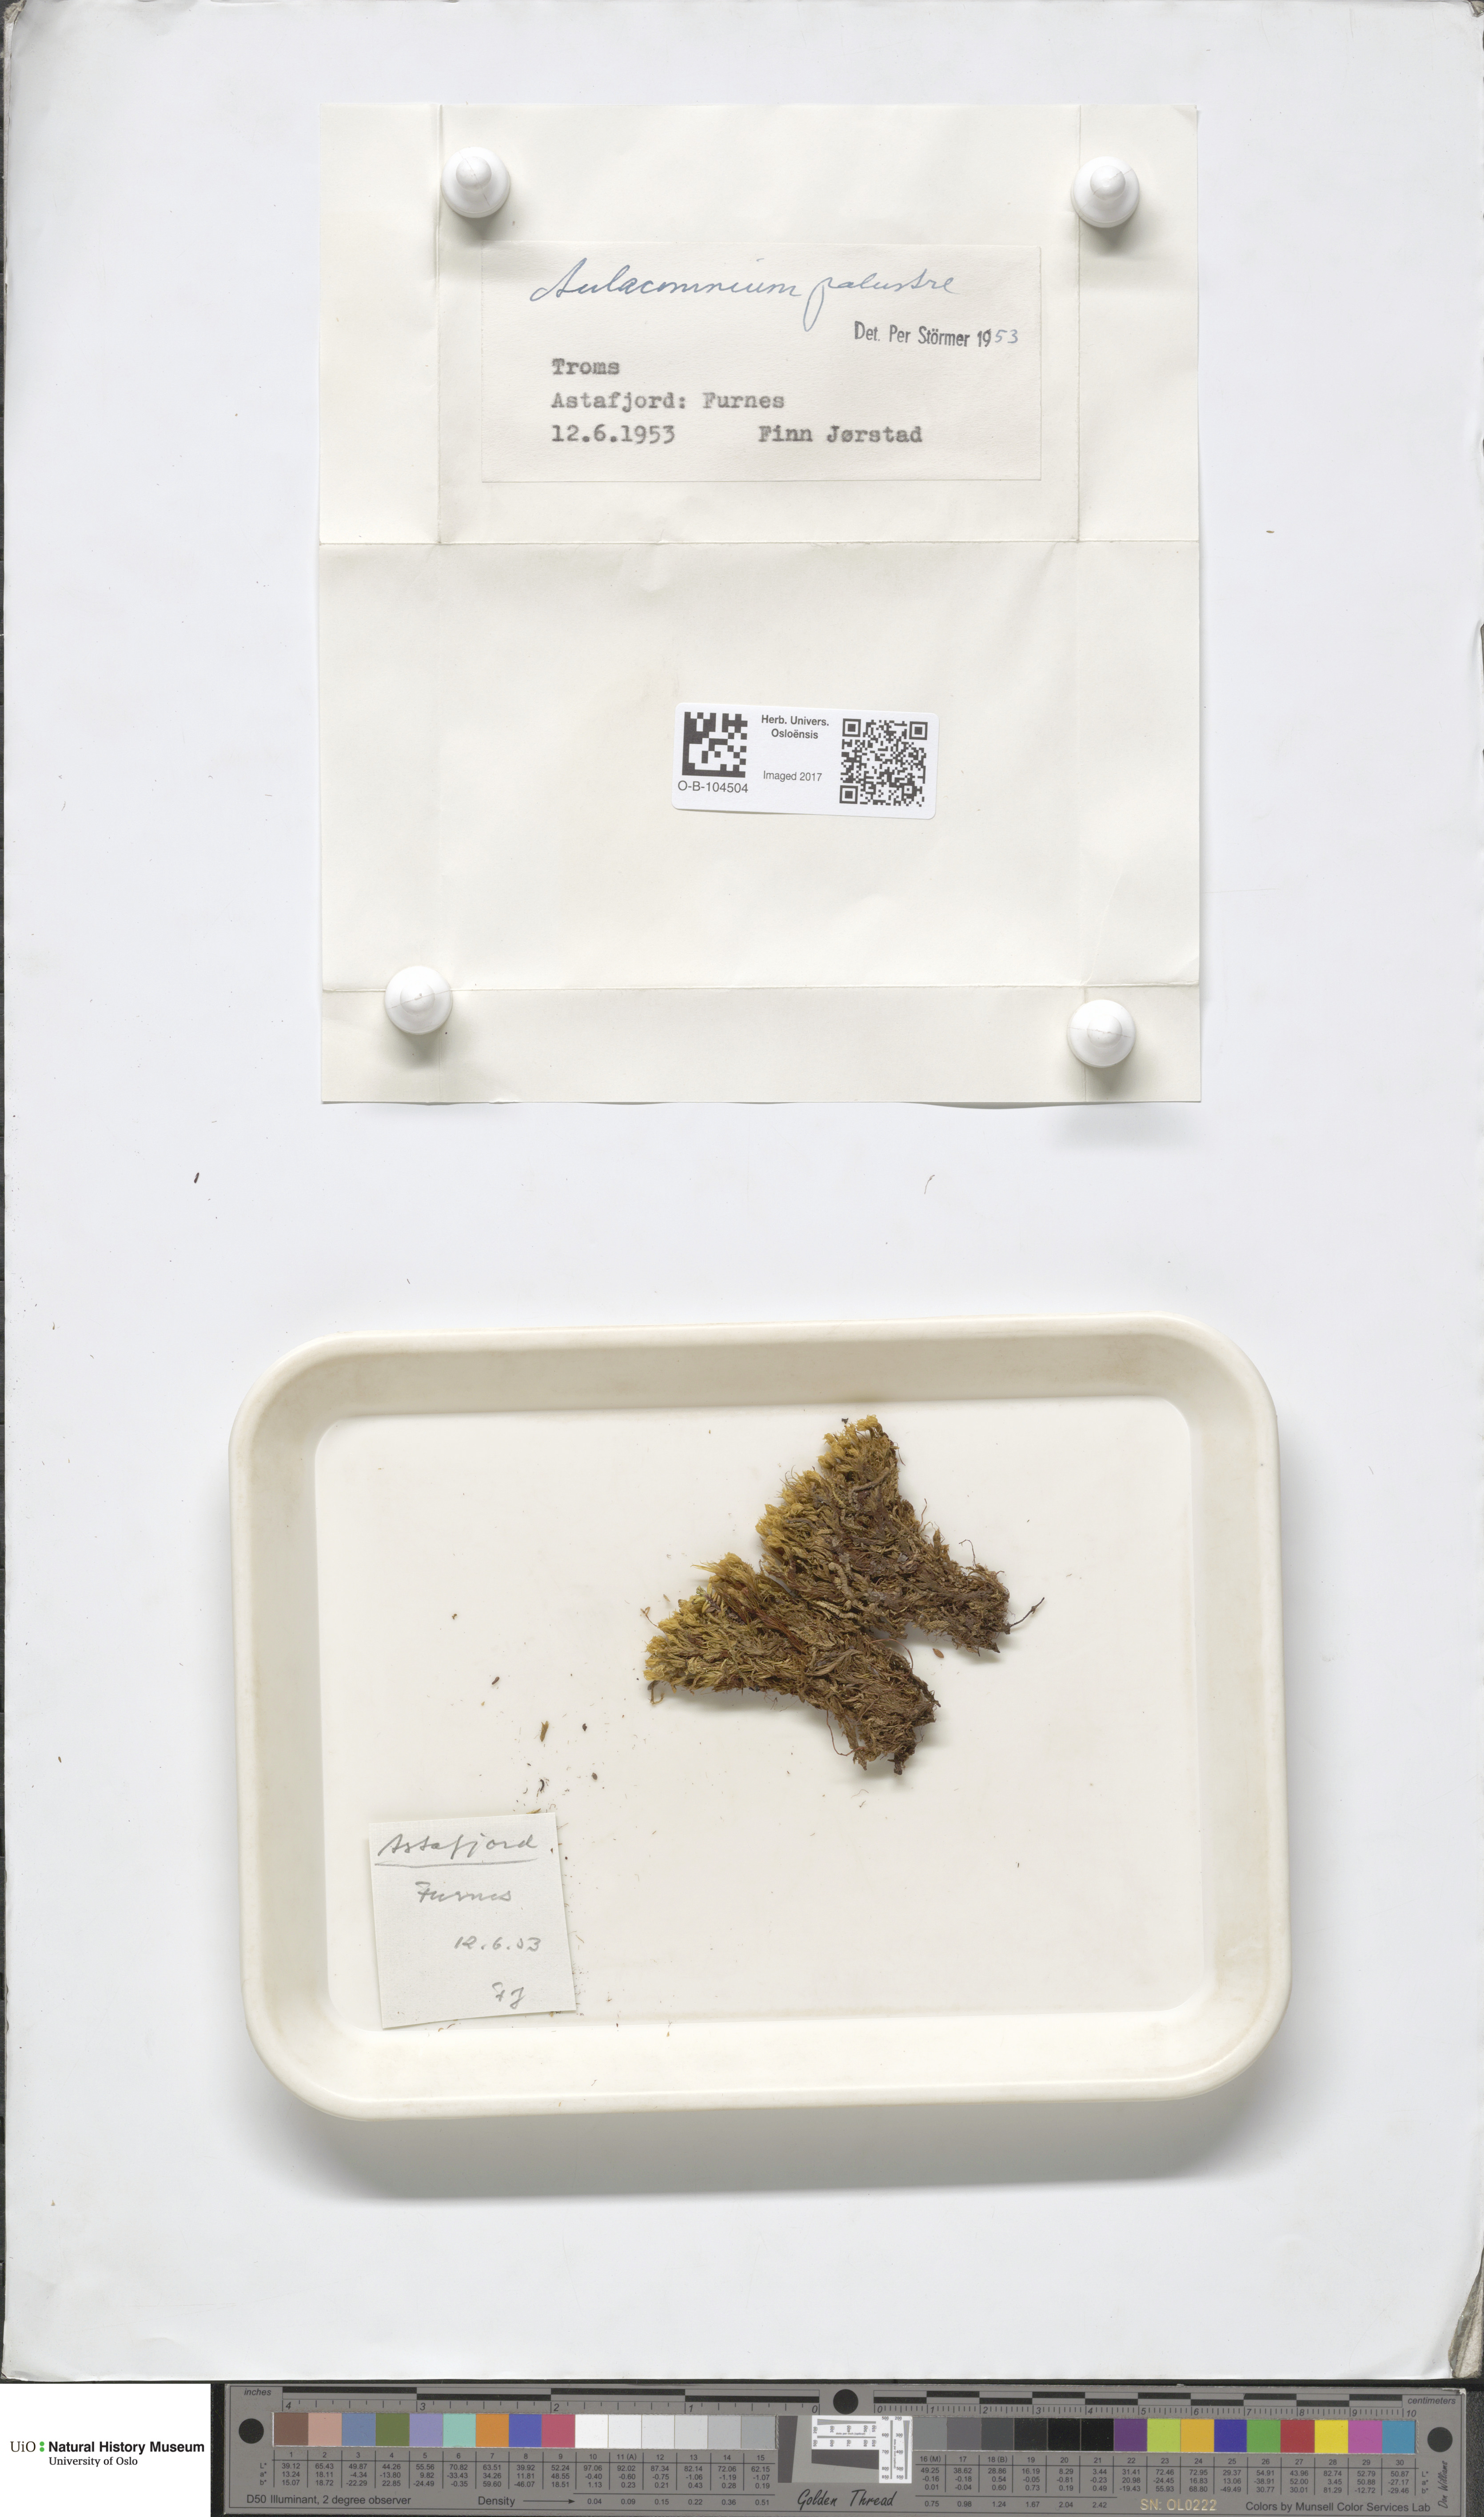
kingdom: Plantae
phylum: Bryophyta
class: Bryopsida
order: Aulacomniales
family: Aulacomniaceae
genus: Aulacomnium
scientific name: Aulacomnium palustre
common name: Bog groove-moss
